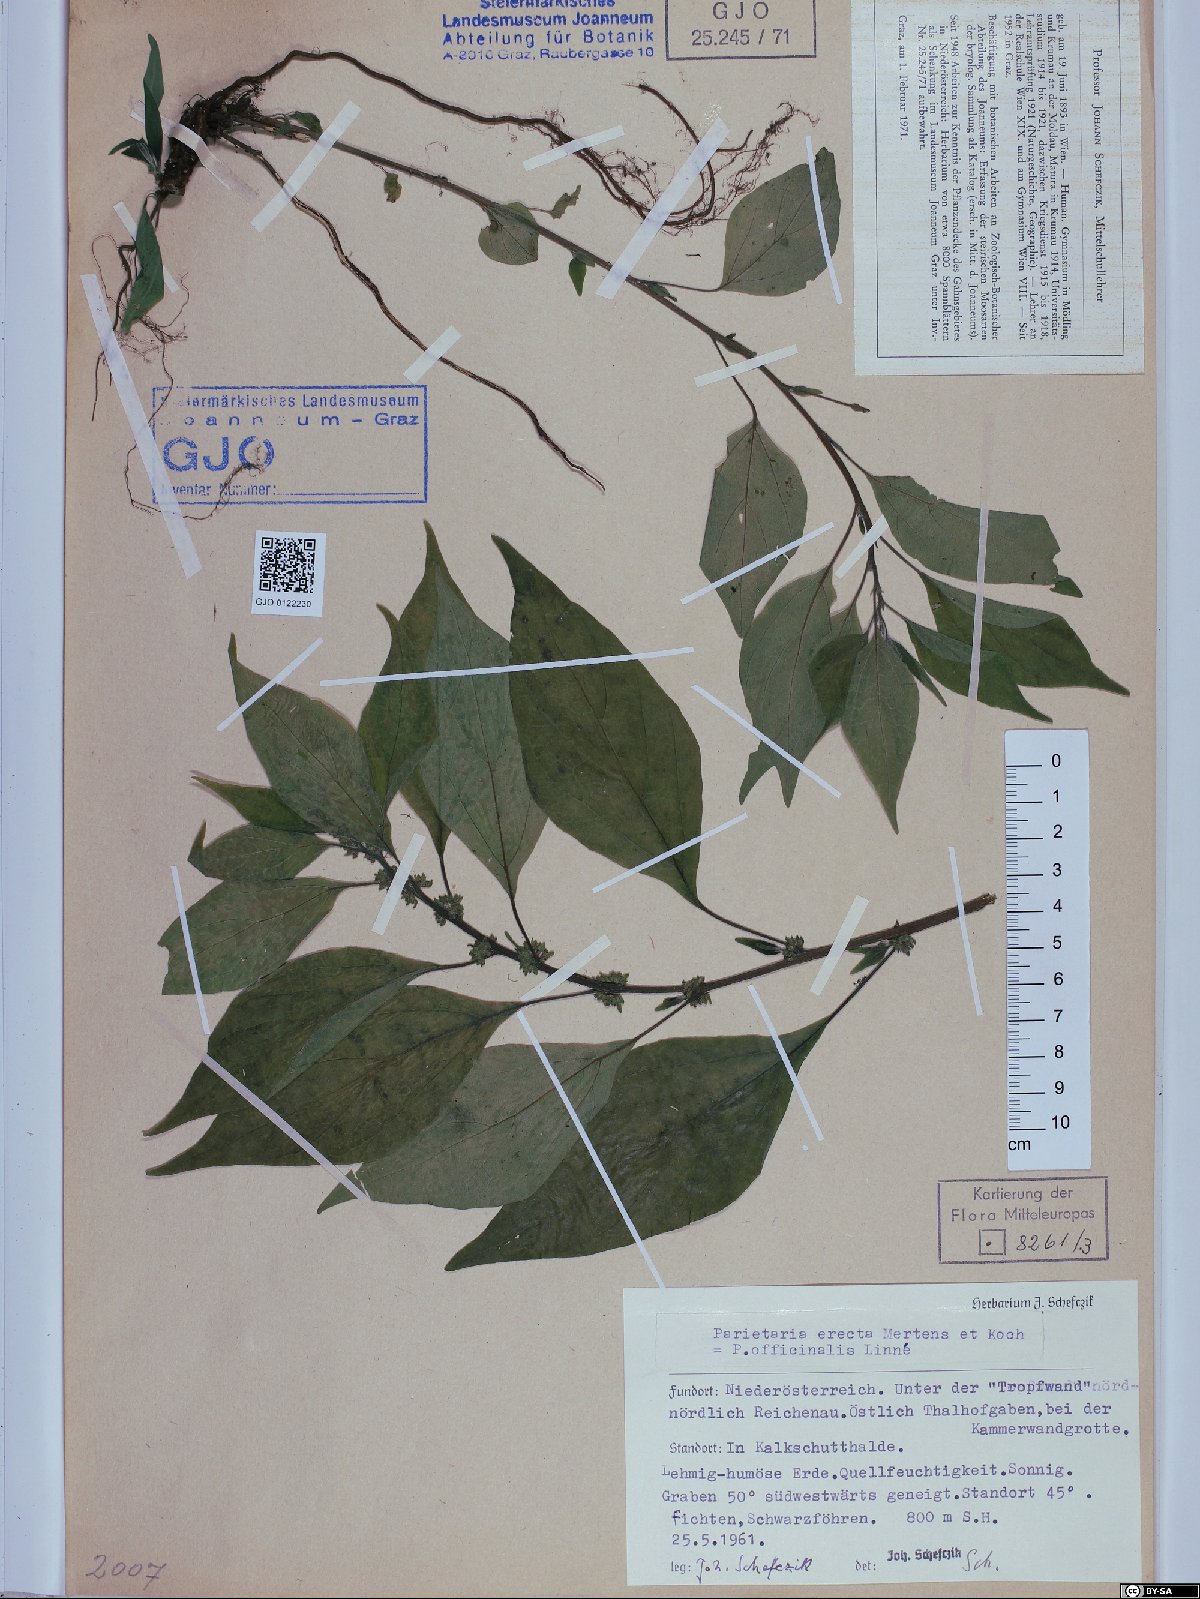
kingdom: Plantae
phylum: Tracheophyta
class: Magnoliopsida
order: Rosales
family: Urticaceae
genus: Parietaria
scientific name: Parietaria officinalis
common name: Eastern pellitory-of-the-wall
